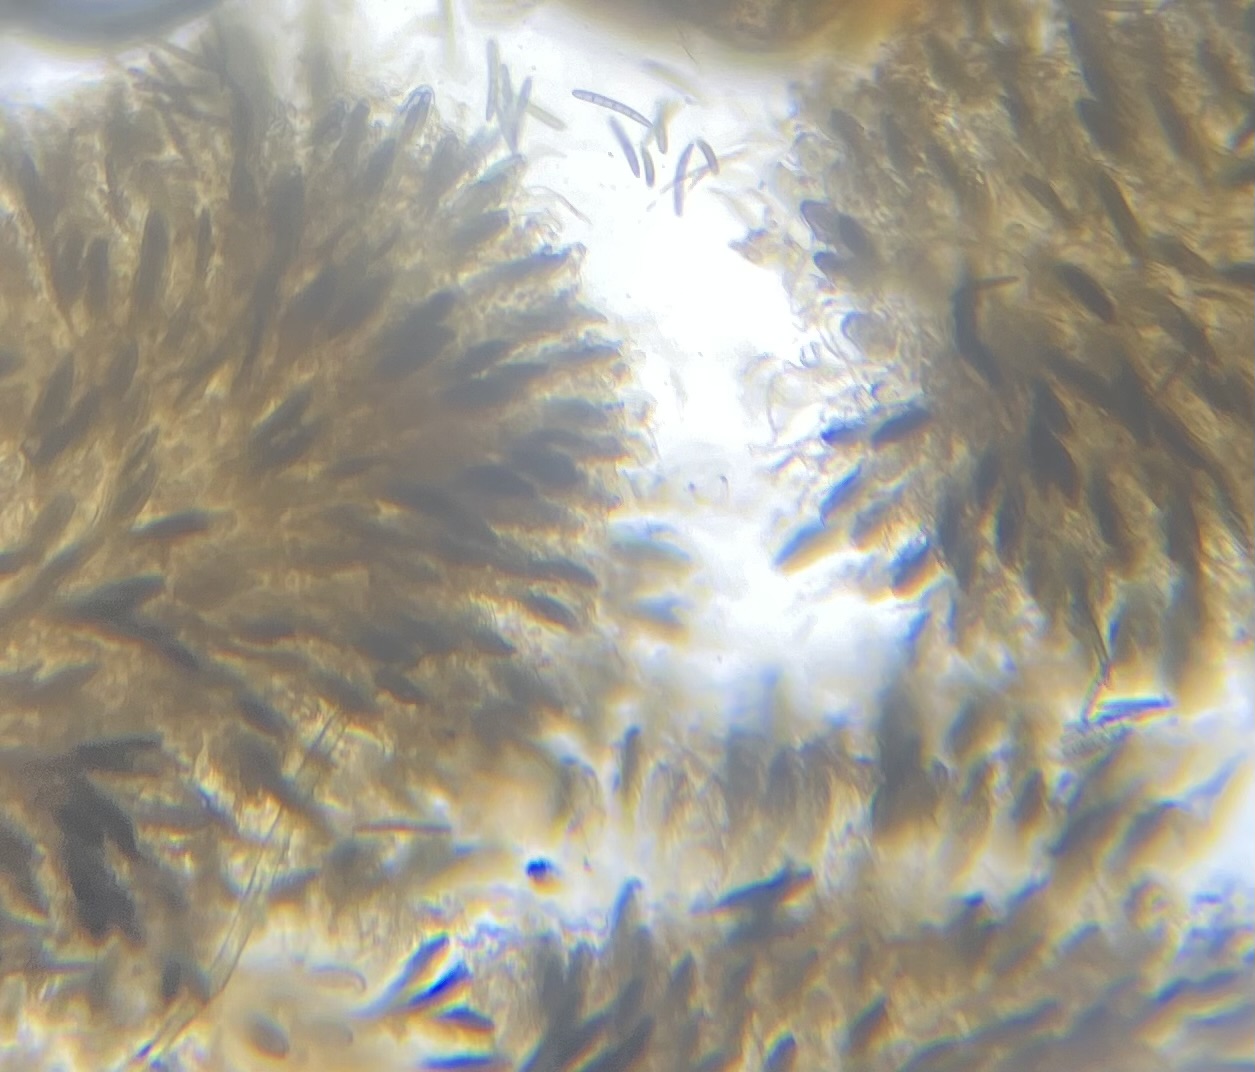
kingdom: Fungi
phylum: Ascomycota
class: Geoglossomycetes
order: Geoglossales
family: Geoglossaceae
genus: Geoglossum
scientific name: Geoglossum fallax
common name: småskællet jordtunge
